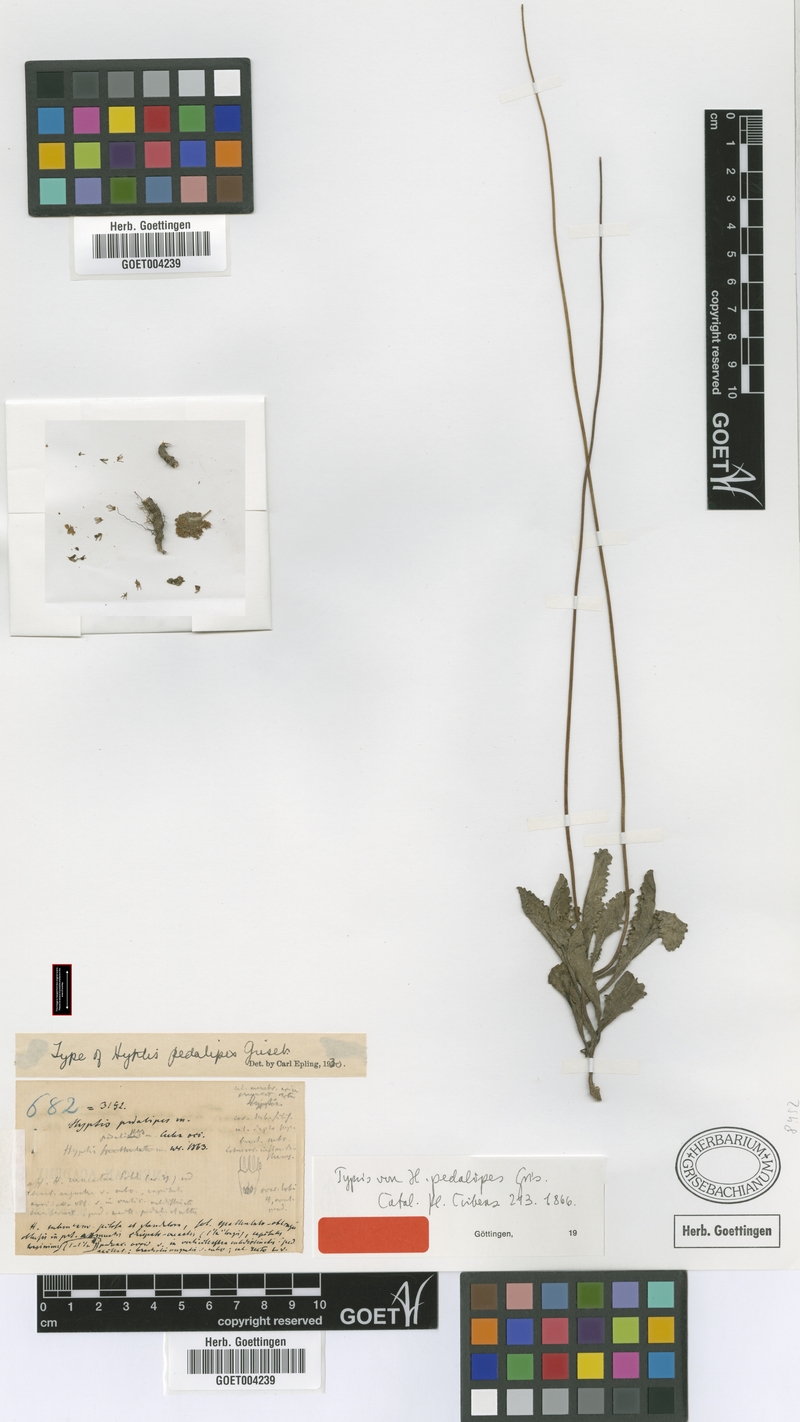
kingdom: Plantae
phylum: Tracheophyta
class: Magnoliopsida
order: Lamiales
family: Lamiaceae
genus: Cyanocephalus
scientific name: Cyanocephalus pedalipes
